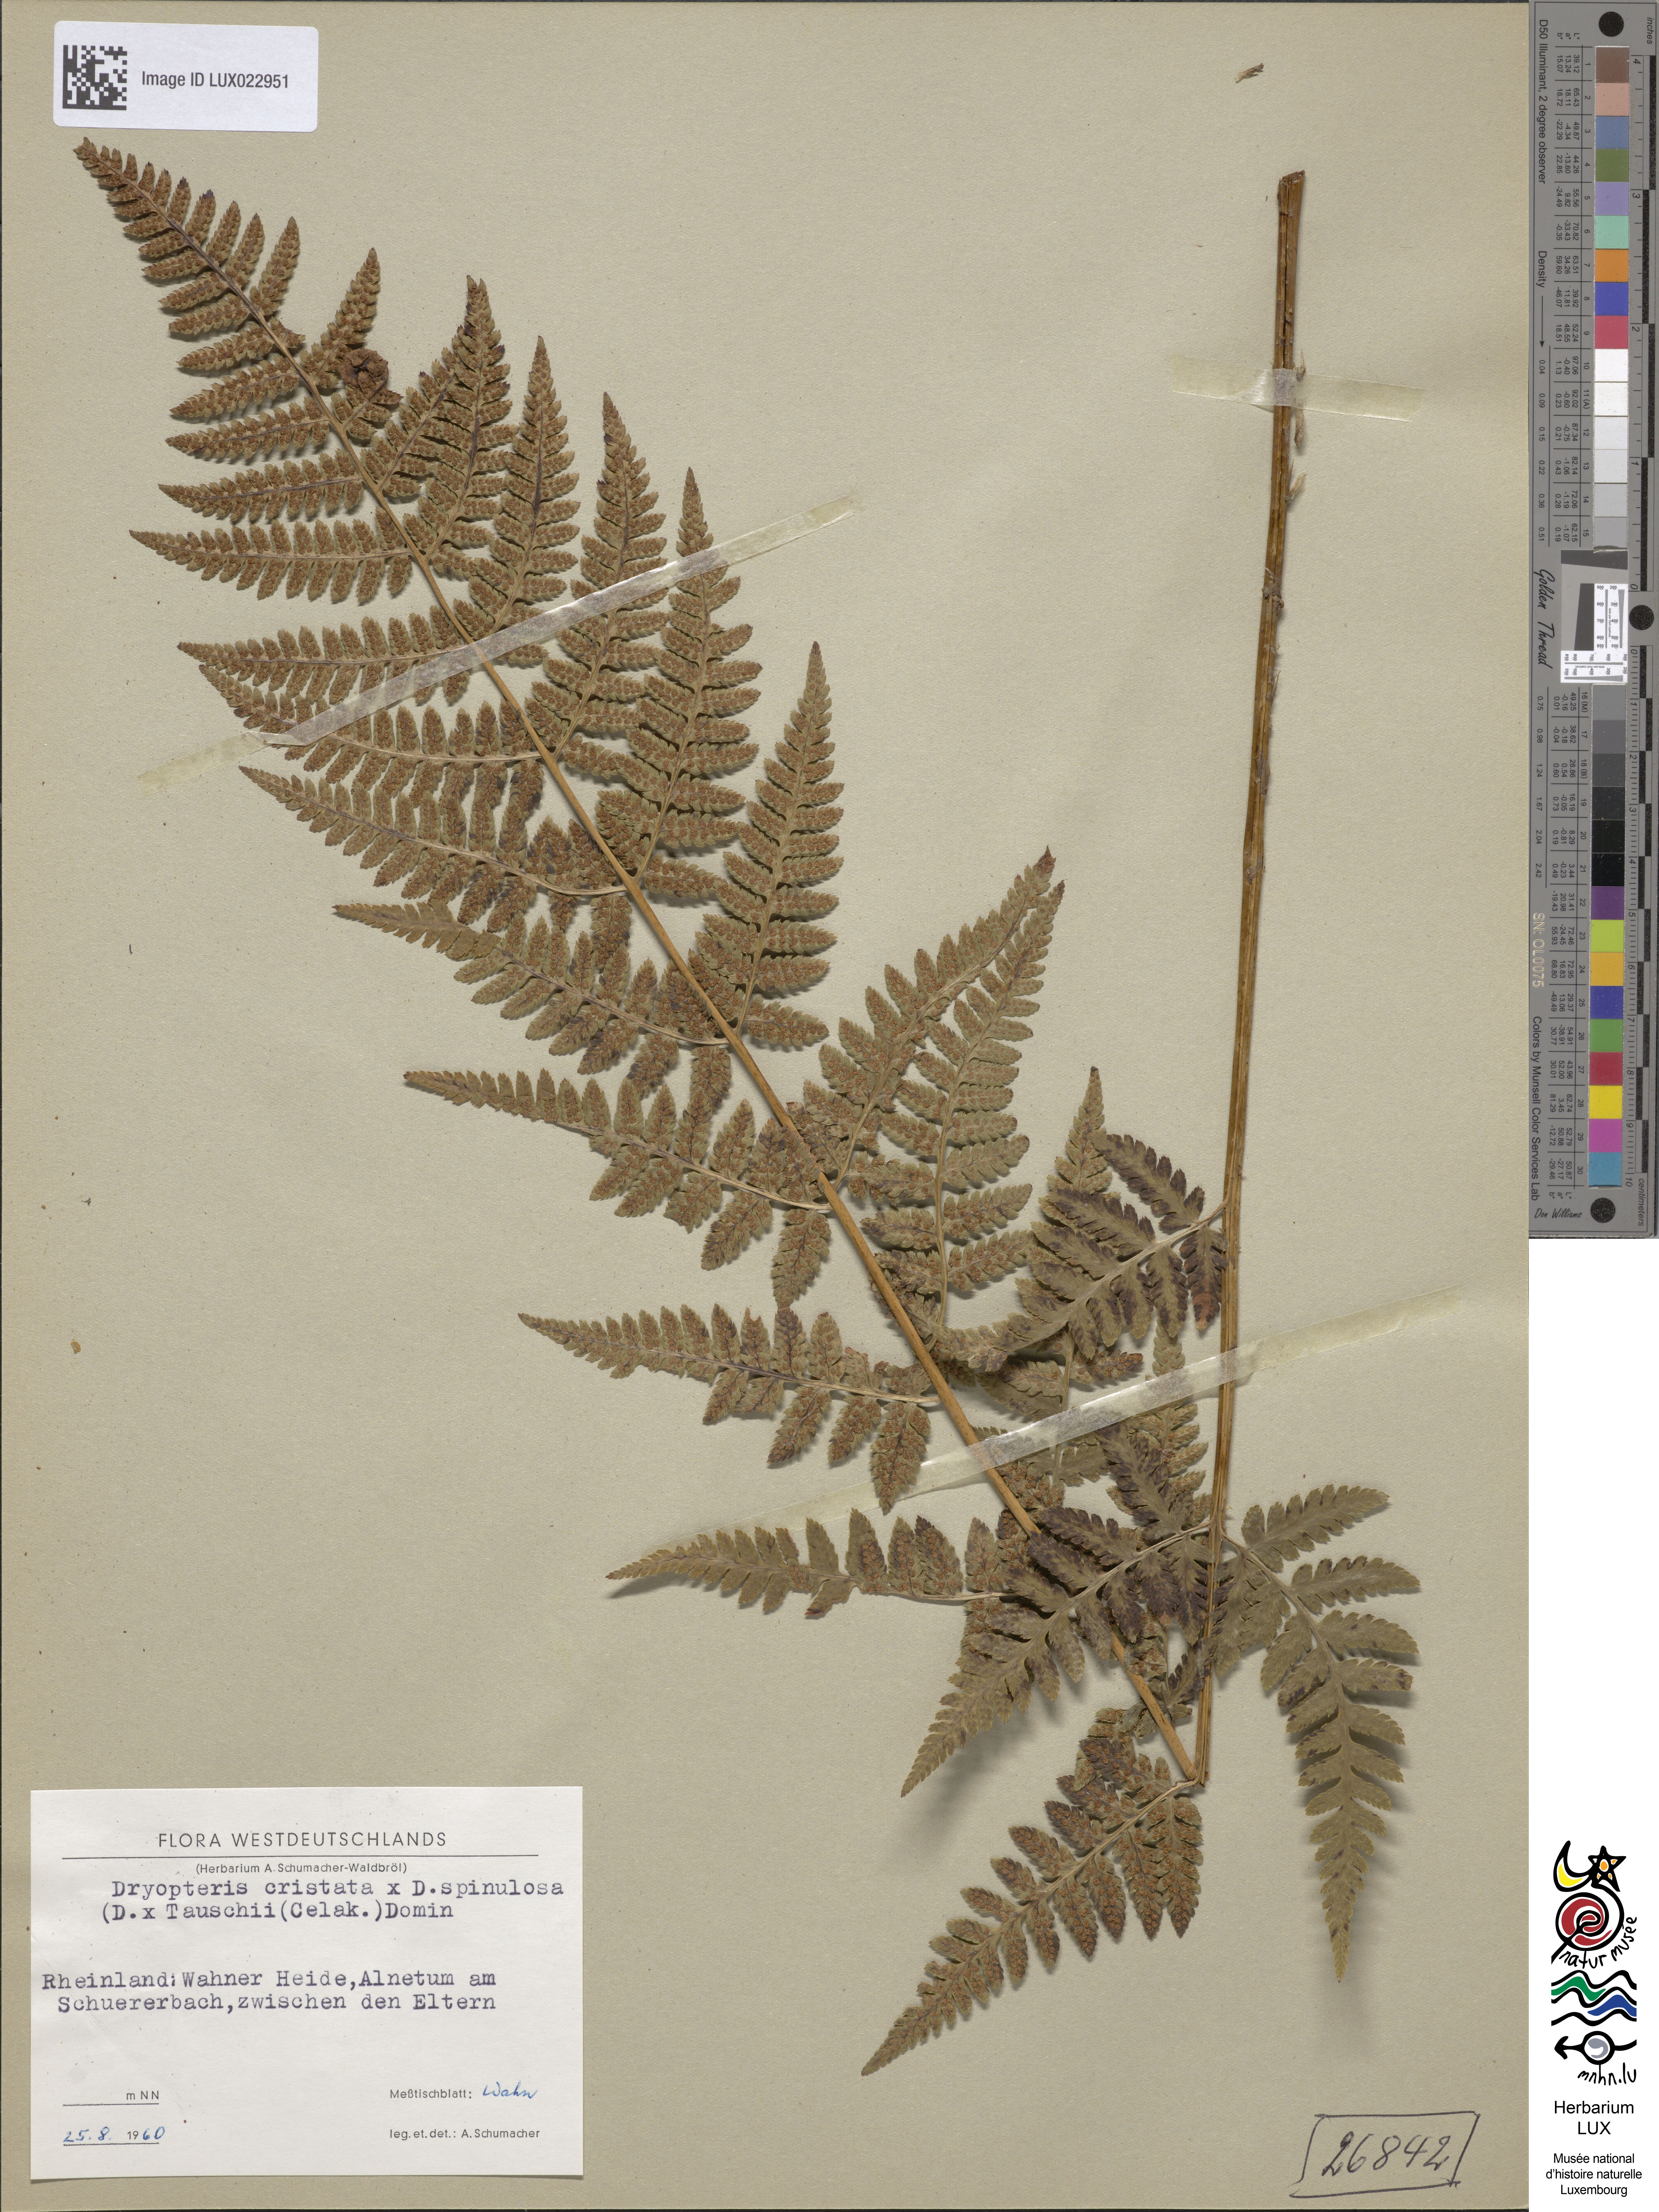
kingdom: Plantae
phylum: Tracheophyta
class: Polypodiopsida
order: Polypodiales
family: Dryopteridaceae
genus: Dryopteris
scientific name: Dryopteris uliginosa
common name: Woodfern
